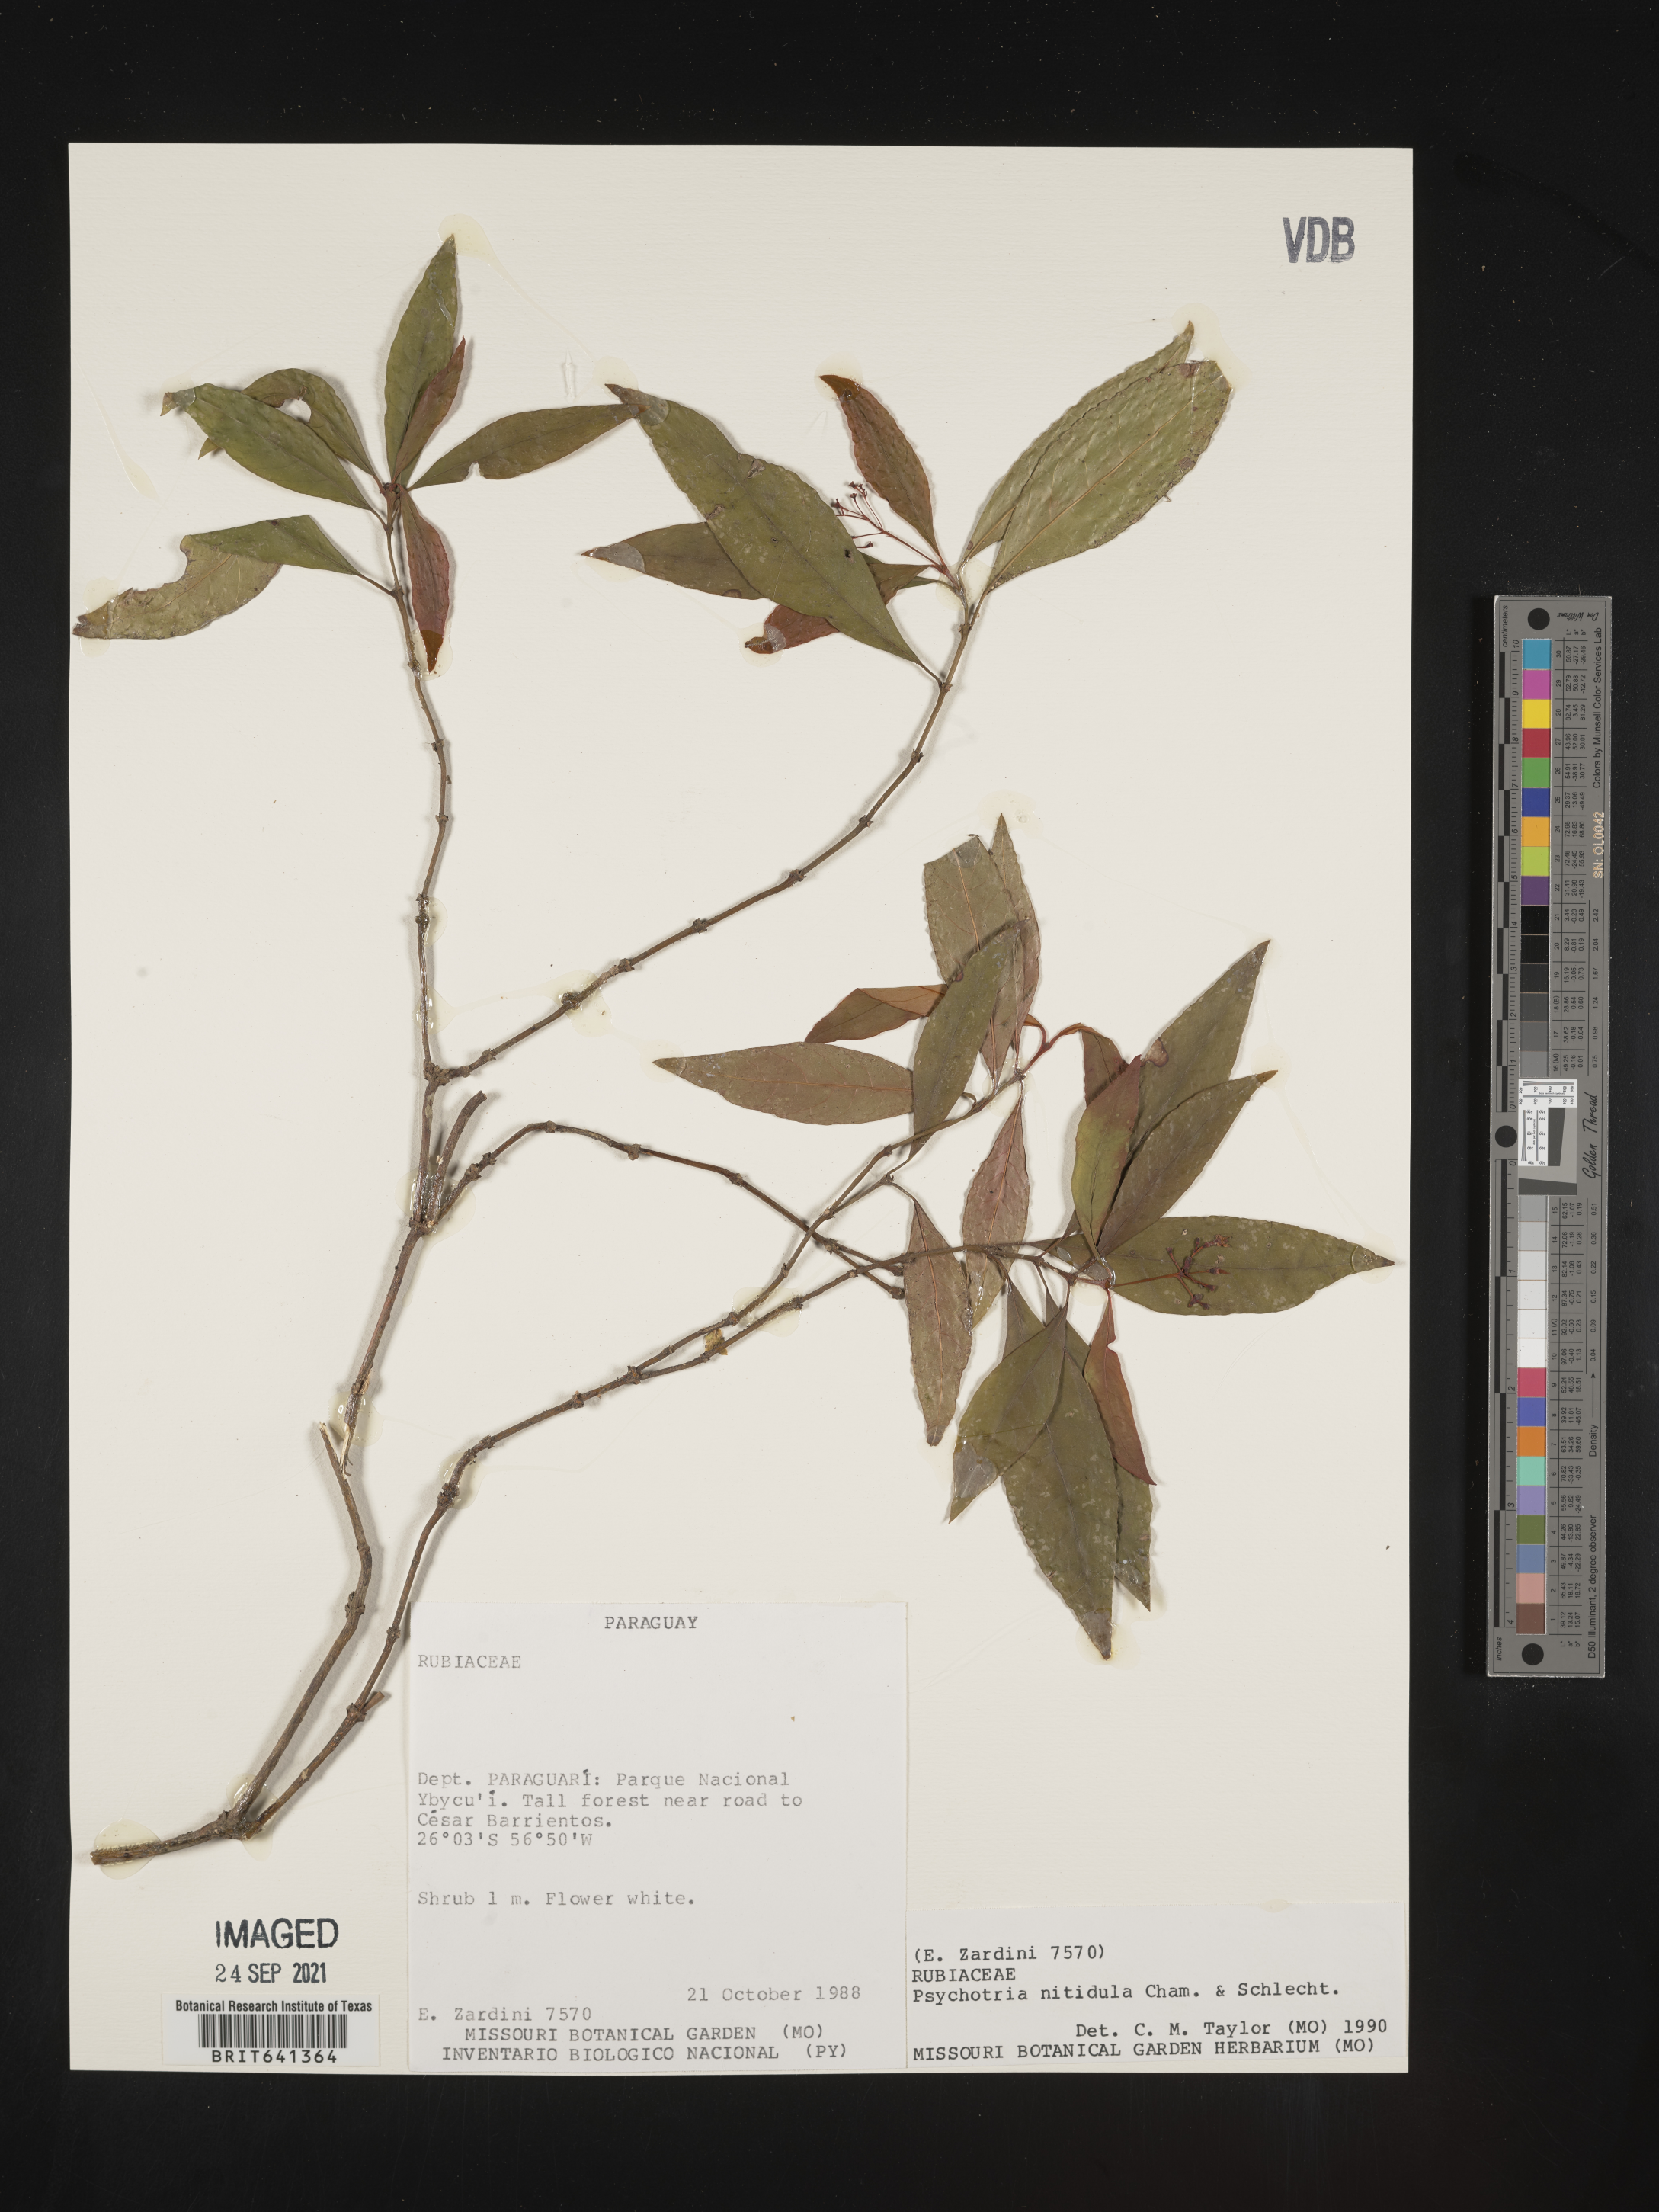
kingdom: Plantae
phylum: Tracheophyta
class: Magnoliopsida
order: Gentianales
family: Rubiaceae
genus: Psychotria
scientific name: Psychotria
